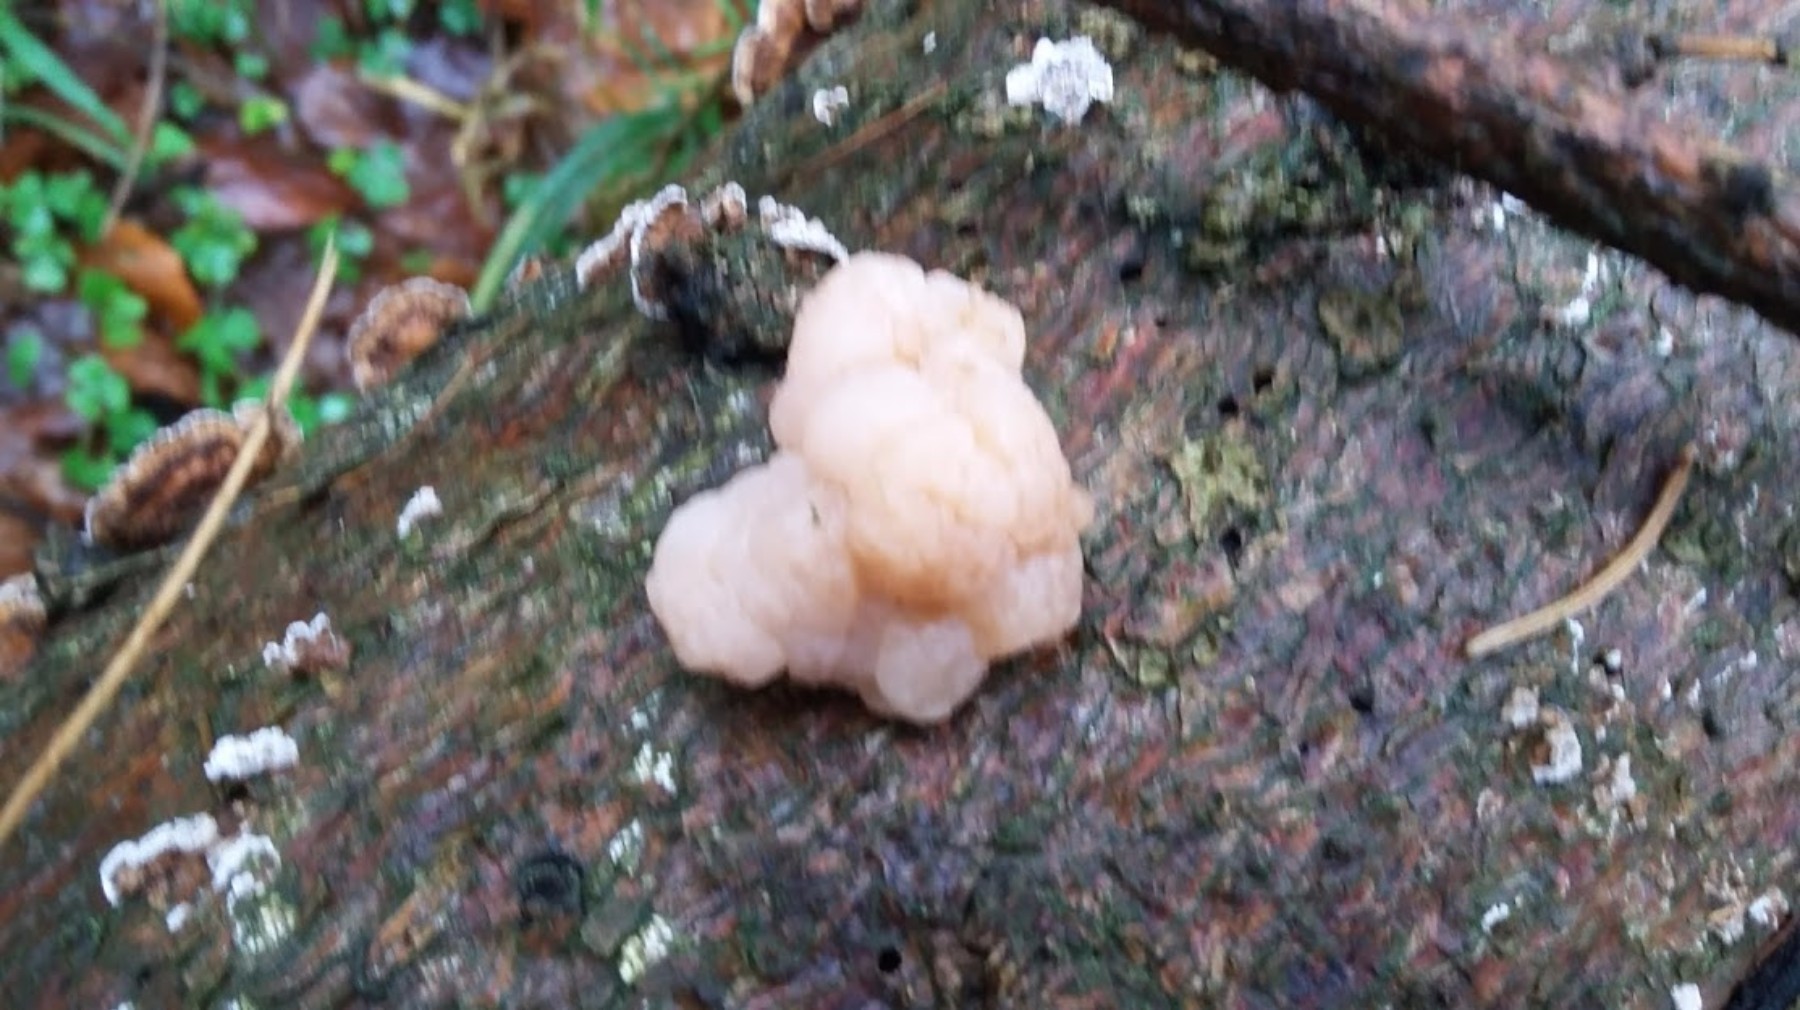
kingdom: Fungi
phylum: Basidiomycota
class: Tremellomycetes
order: Tremellales
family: Naemateliaceae
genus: Naematelia
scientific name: Naematelia encephala
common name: fyrre-bævresvamp
